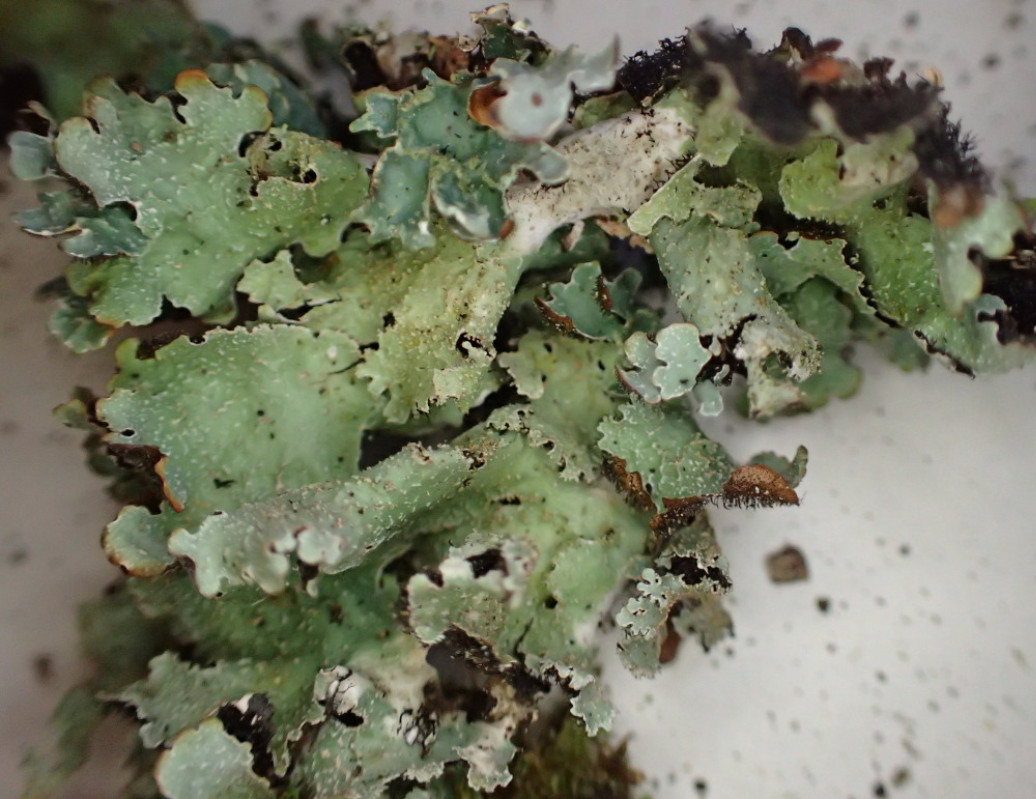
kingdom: Fungi
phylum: Ascomycota
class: Lecanoromycetes
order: Lecanorales
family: Parmeliaceae
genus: Parmelia
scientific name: Parmelia saxatilis
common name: farve-skållav
